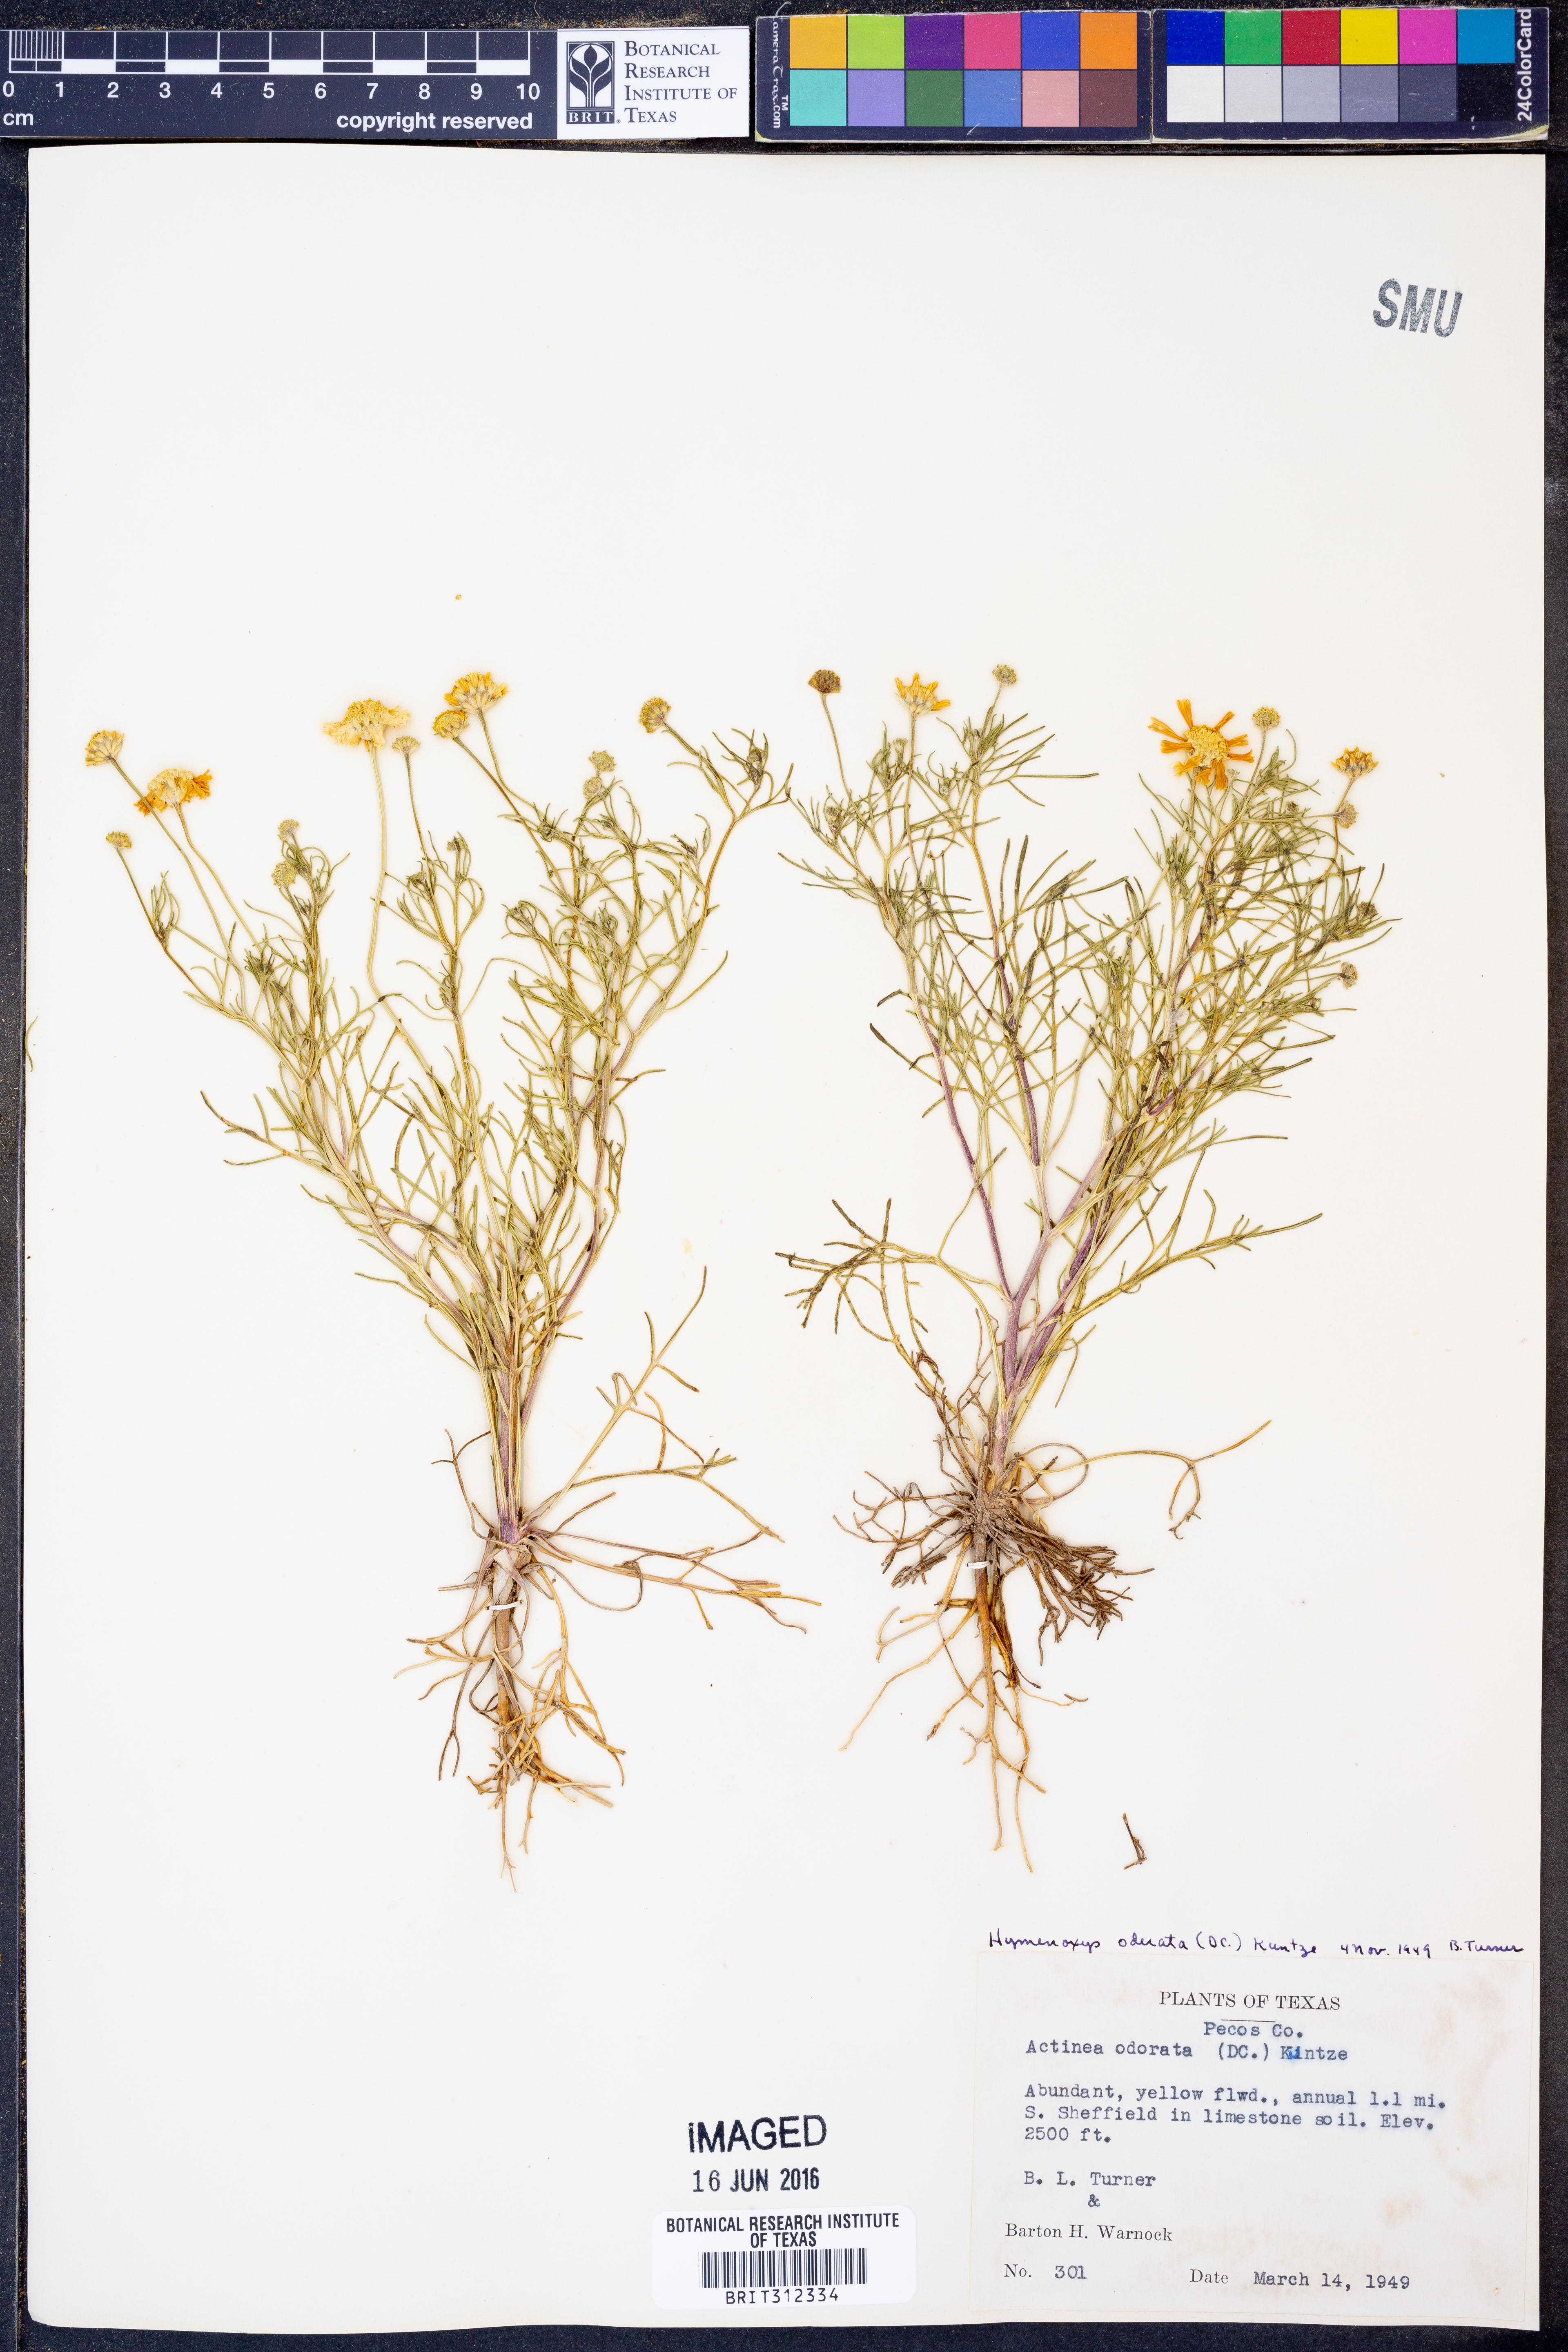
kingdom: Plantae
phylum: Tracheophyta
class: Magnoliopsida
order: Asterales
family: Asteraceae
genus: Hymenoxys
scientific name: Hymenoxys odorata
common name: Bitter rubberweed
